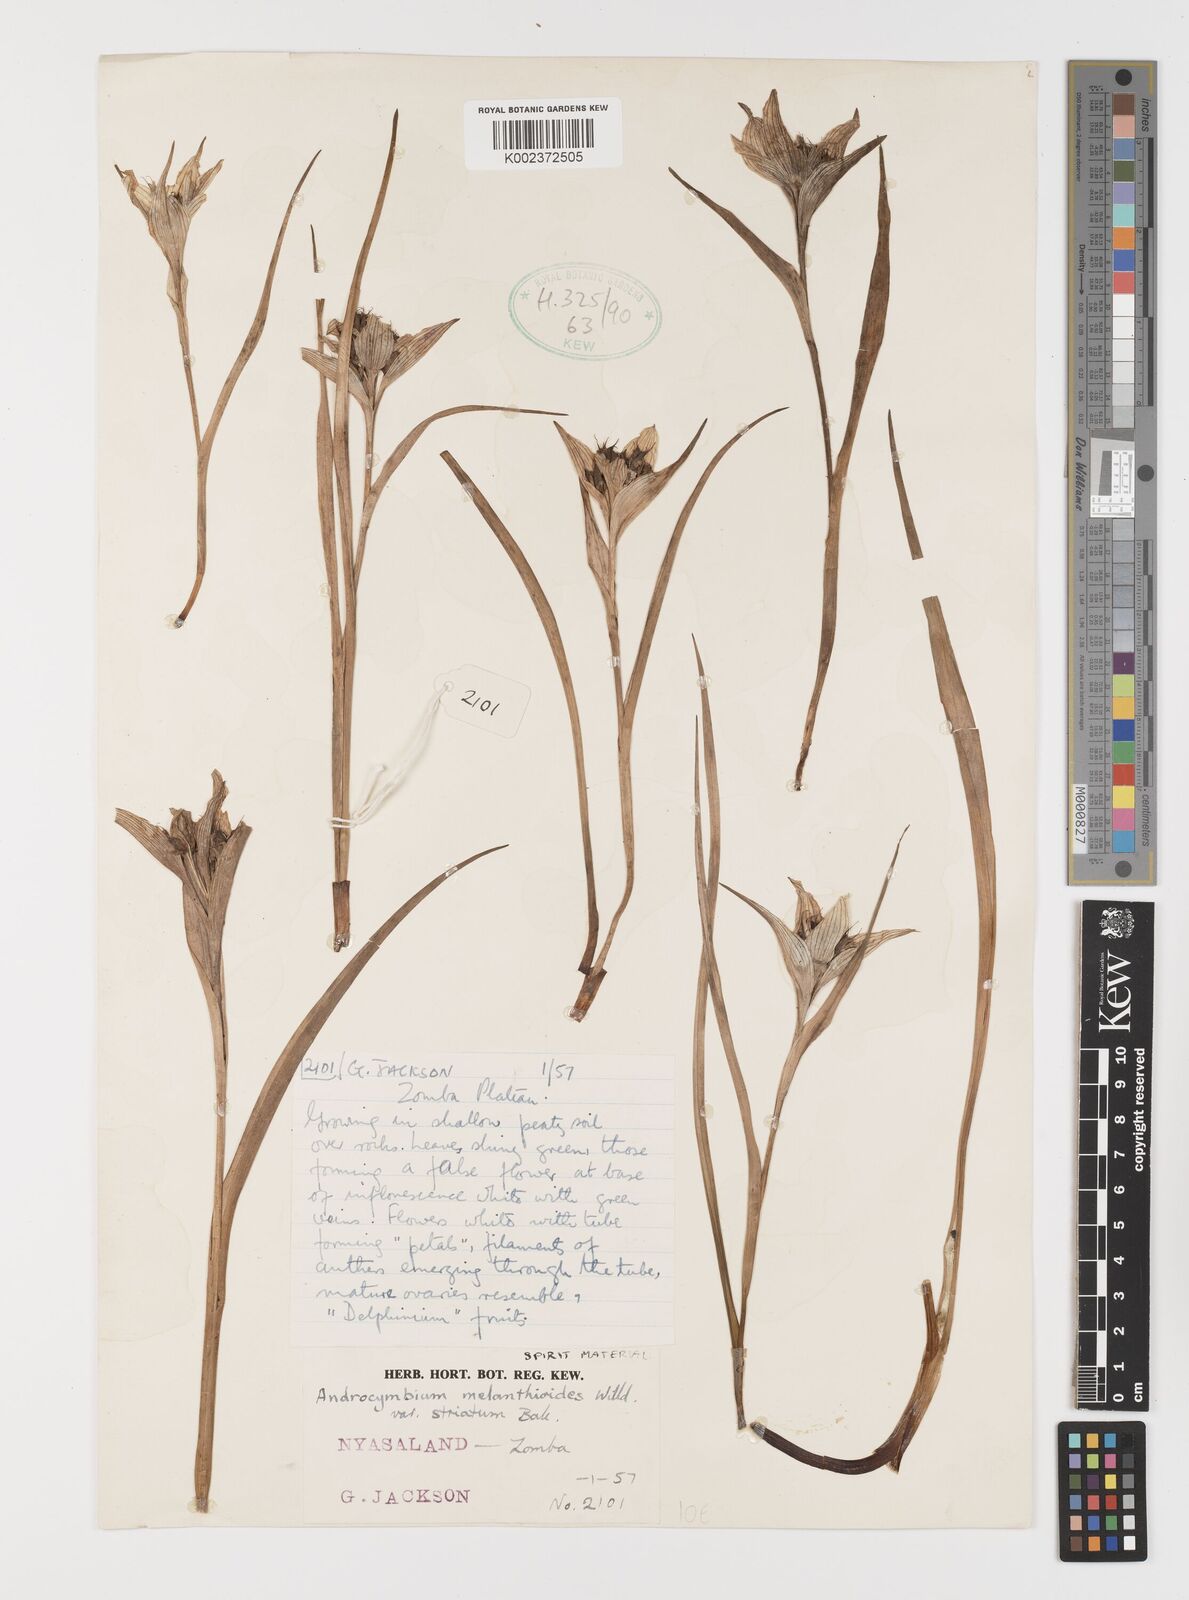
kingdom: Plantae
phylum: Tracheophyta
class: Liliopsida
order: Liliales
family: Colchicaceae
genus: Colchicum
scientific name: Colchicum melanthioides
